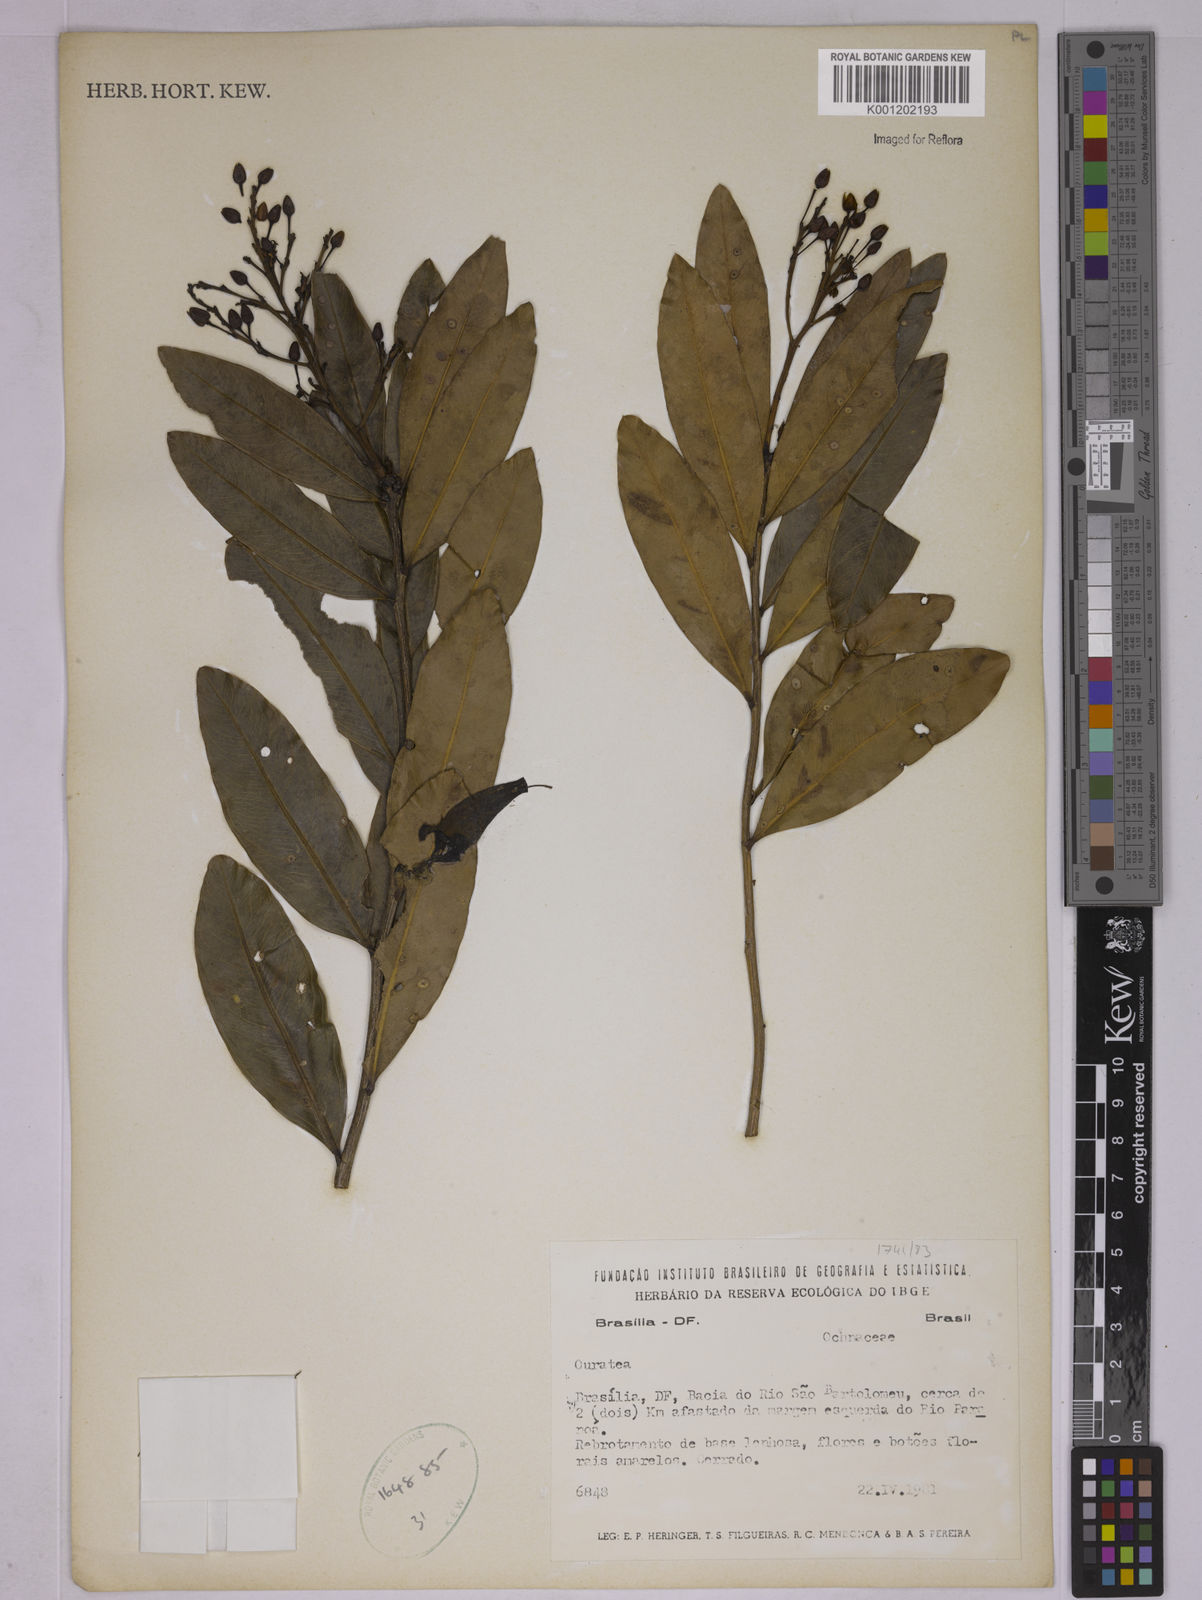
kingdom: Plantae
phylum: Tracheophyta
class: Magnoliopsida
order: Malpighiales
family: Ochnaceae
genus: Ouratea
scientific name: Ouratea
